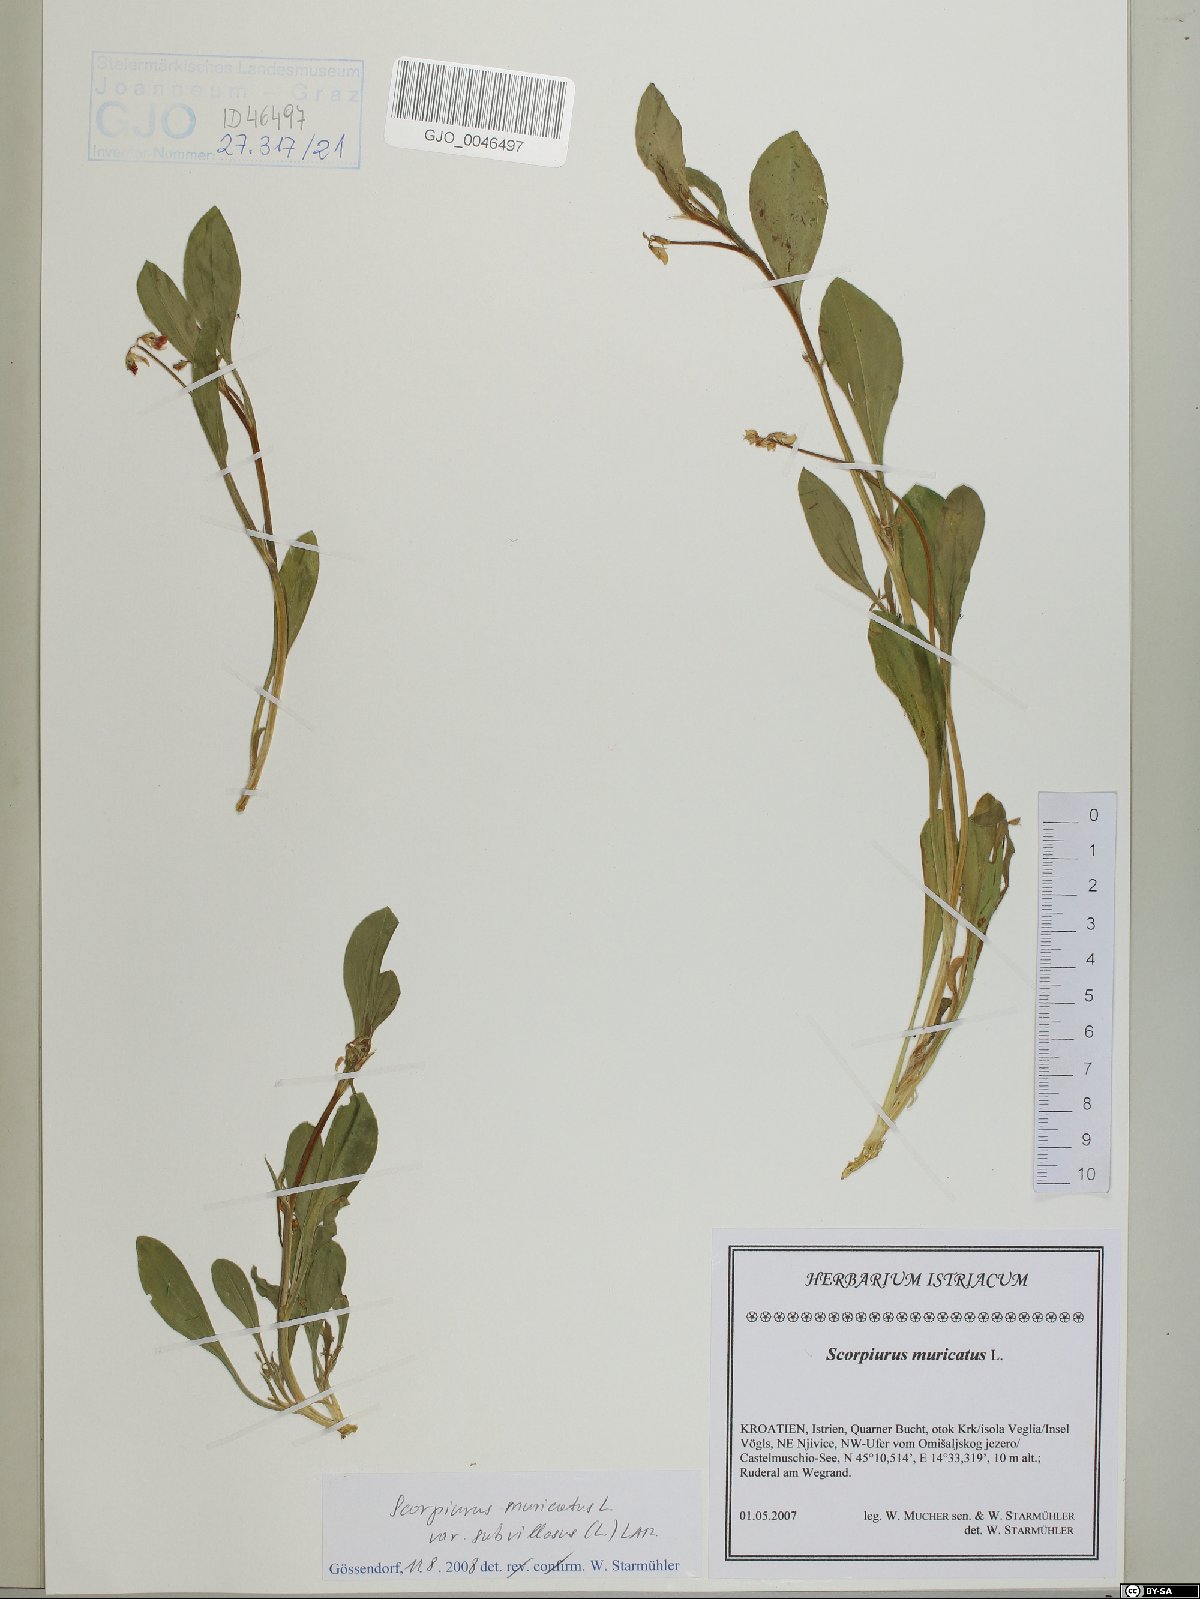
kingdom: Plantae
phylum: Tracheophyta
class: Magnoliopsida
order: Fabales
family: Fabaceae
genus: Scorpiurus
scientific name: Scorpiurus muricatus
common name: Caterpillar-plant
